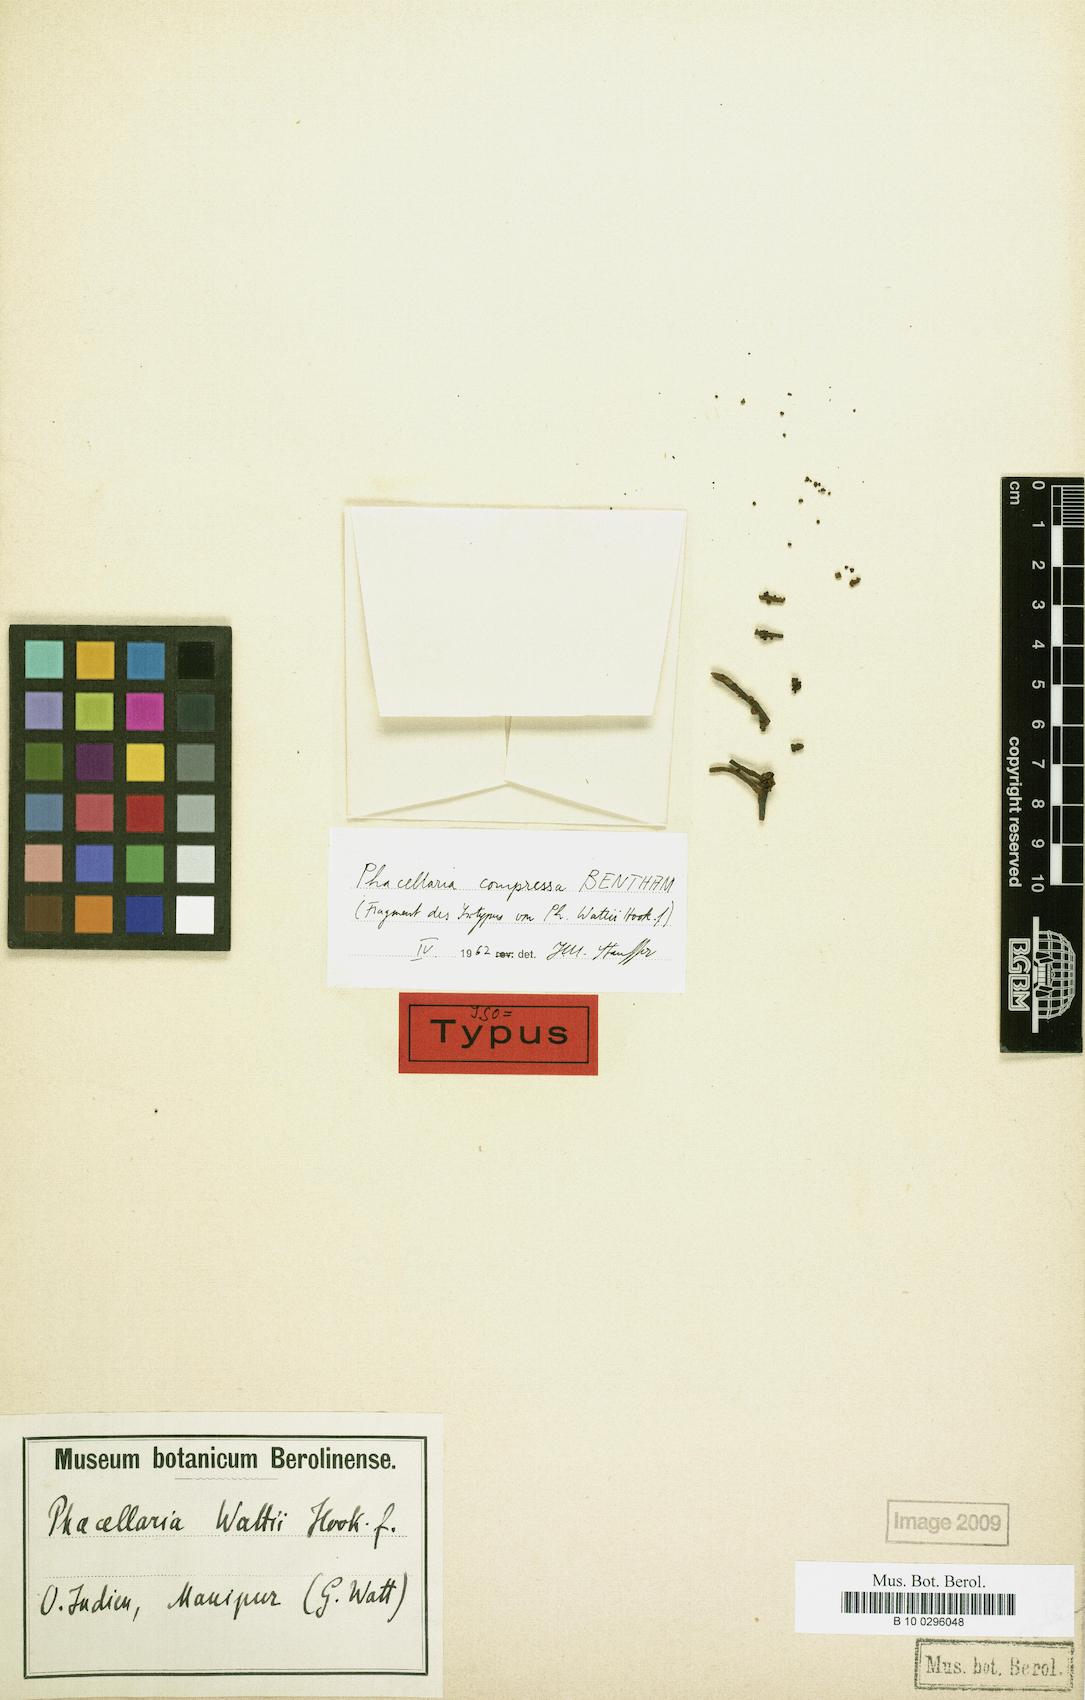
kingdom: Plantae
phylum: Tracheophyta
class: Magnoliopsida
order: Santalales
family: Amphorogynaceae
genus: Phacellaria
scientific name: Phacellaria compressa
